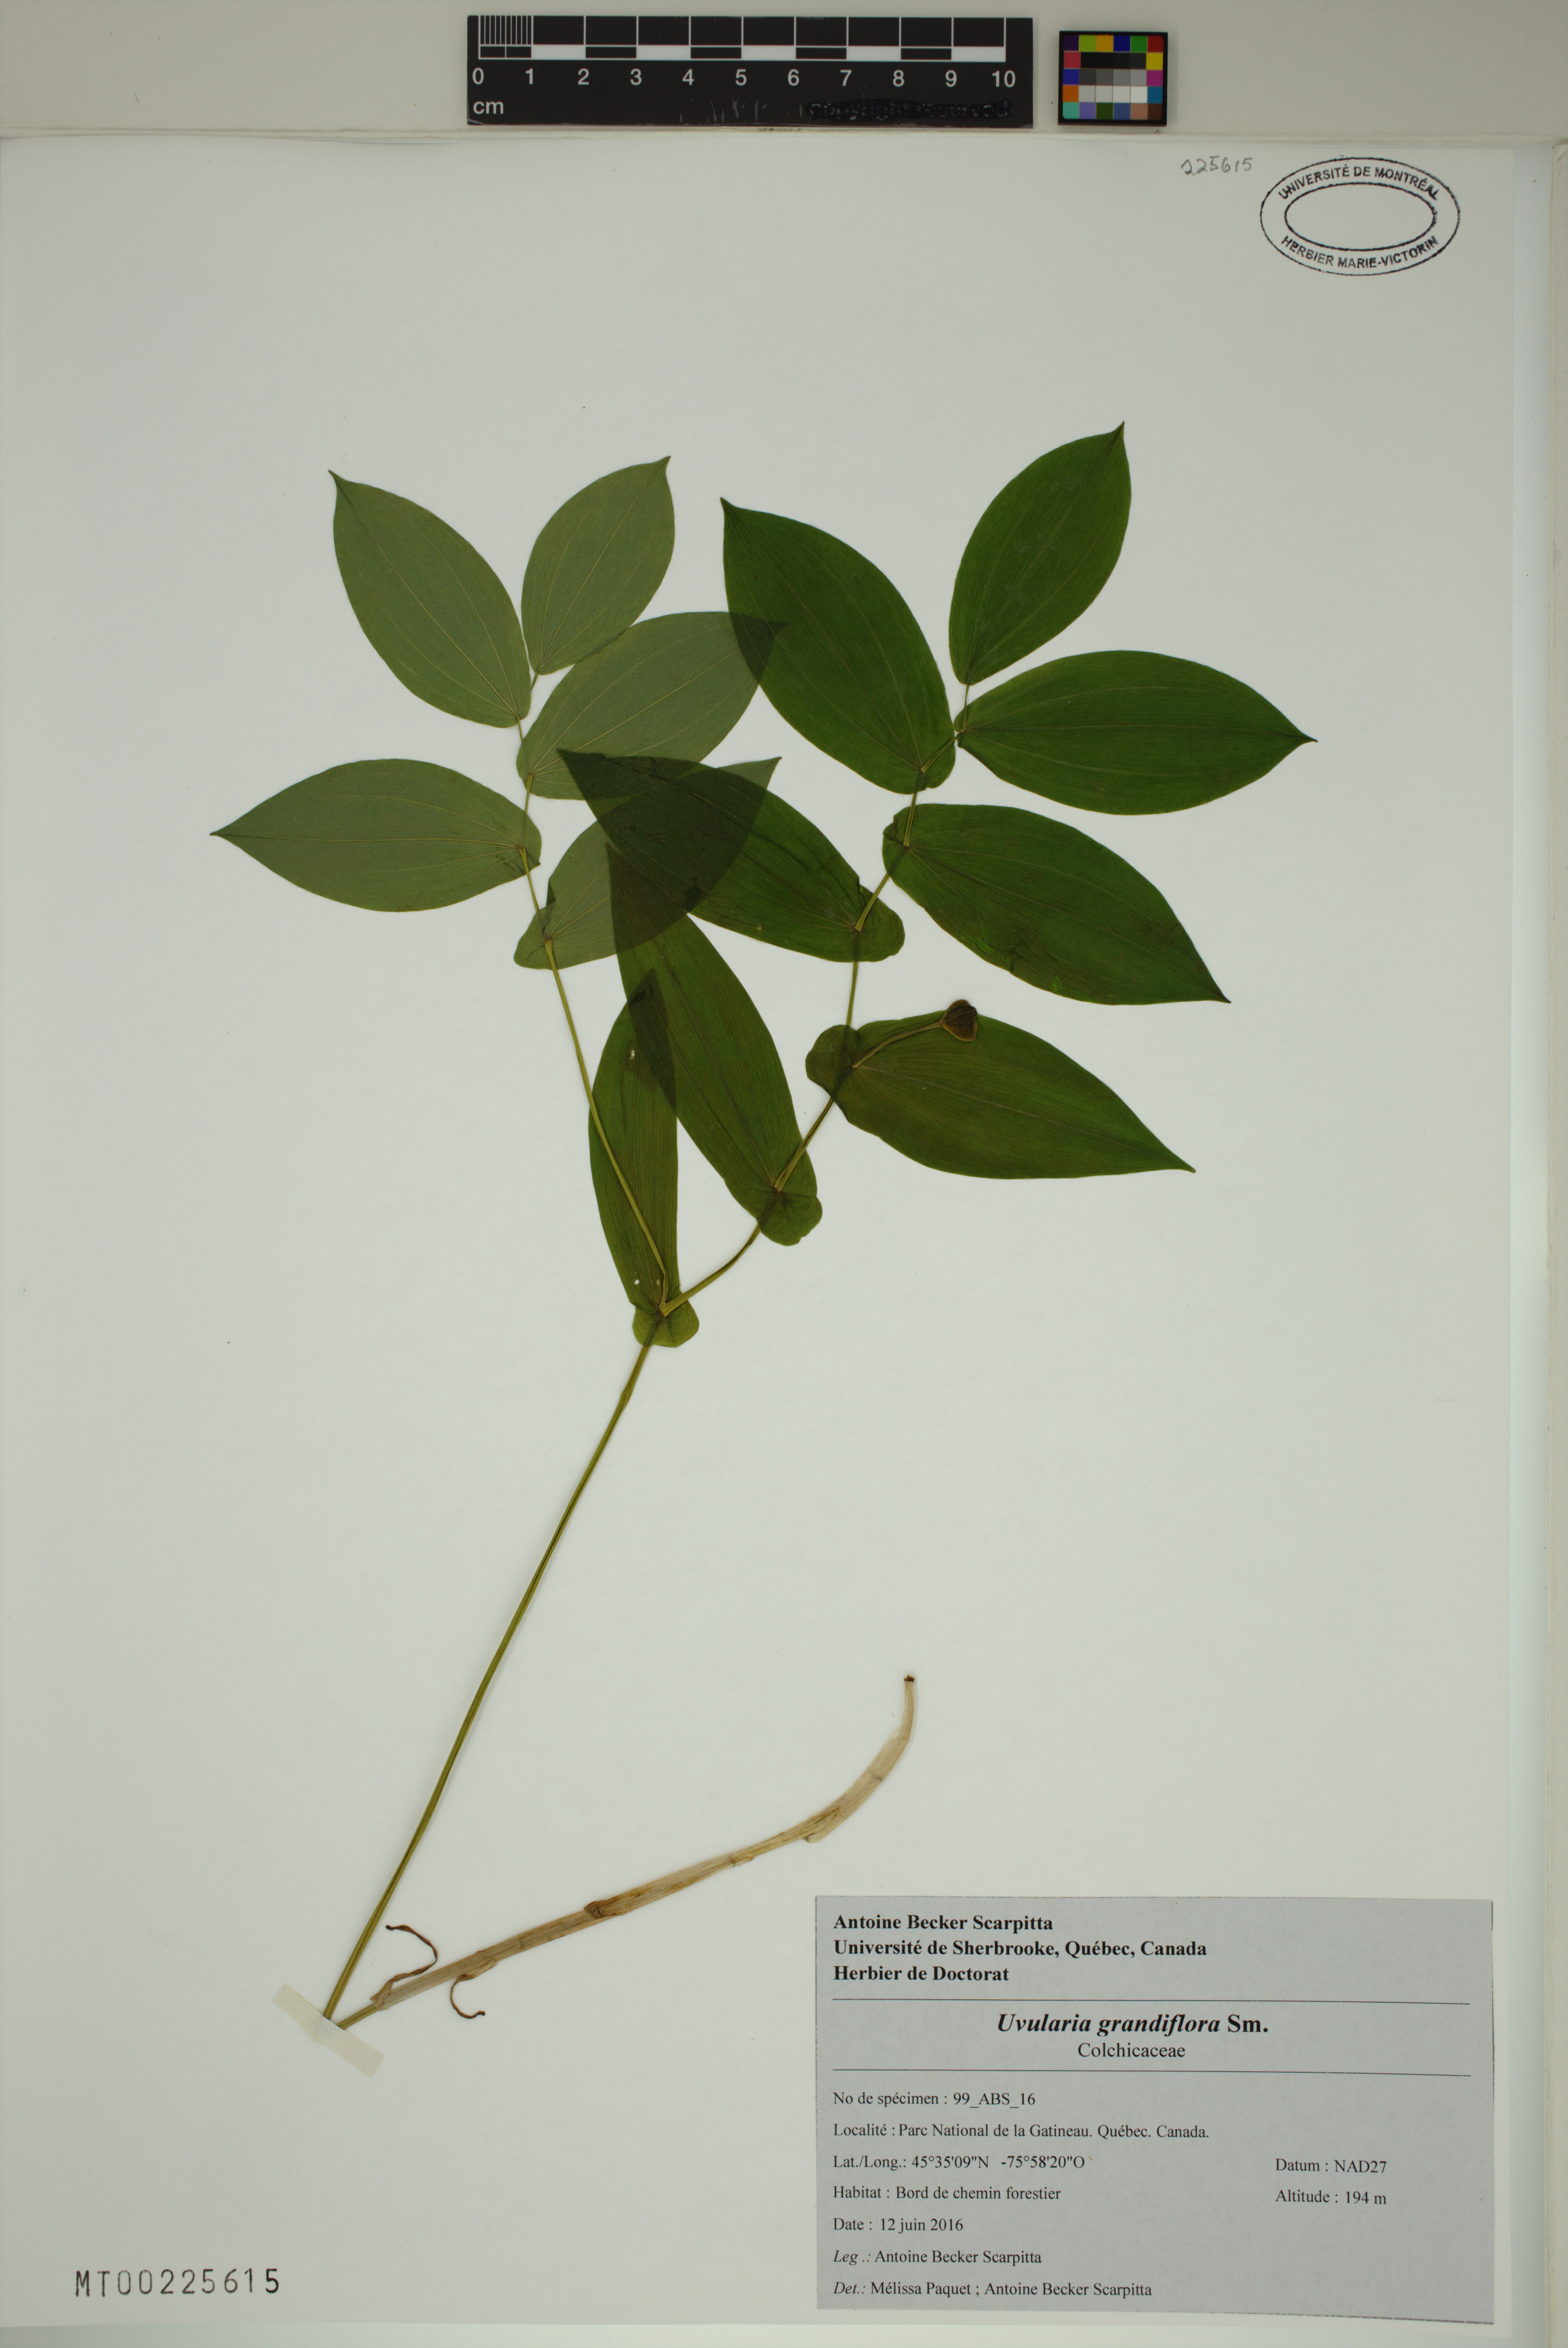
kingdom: Plantae
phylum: Tracheophyta
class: Liliopsida
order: Liliales
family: Colchicaceae
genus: Uvularia
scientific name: Uvularia grandiflora
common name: Bellwort
